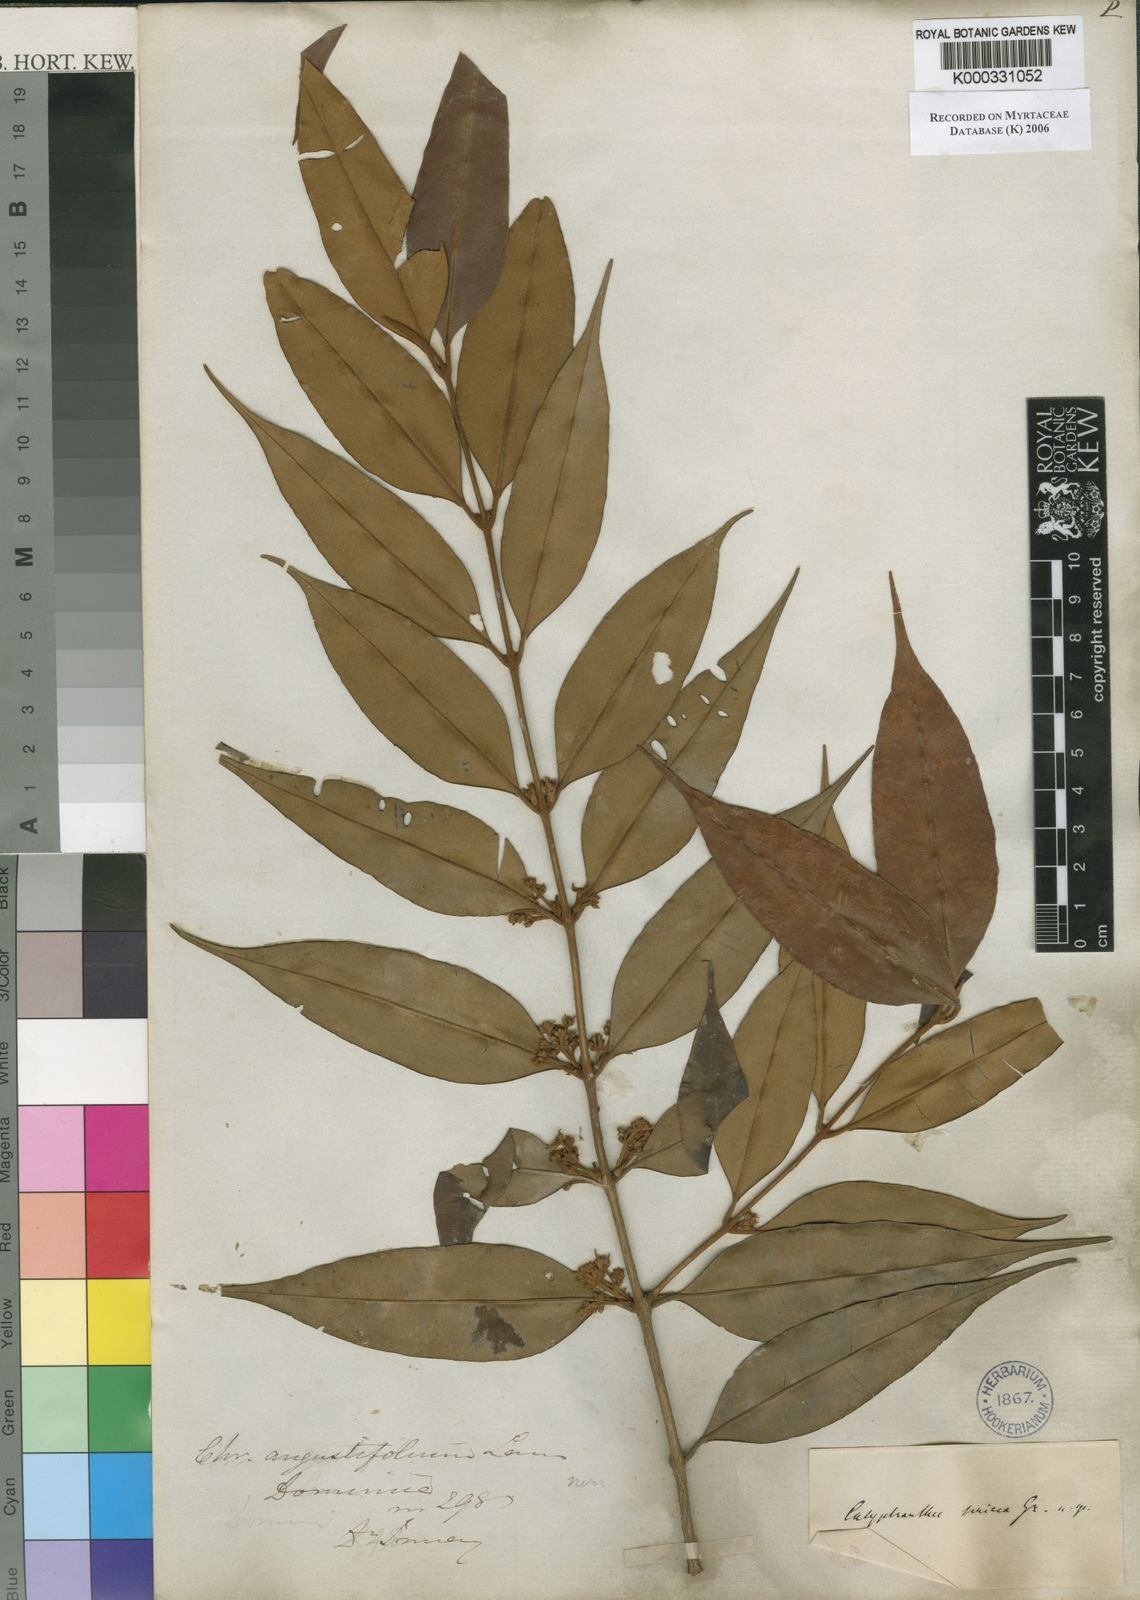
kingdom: Plantae
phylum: Tracheophyta
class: Magnoliopsida
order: Myrtales
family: Myrtaceae
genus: Myrcia
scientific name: Myrcia fasciculata
